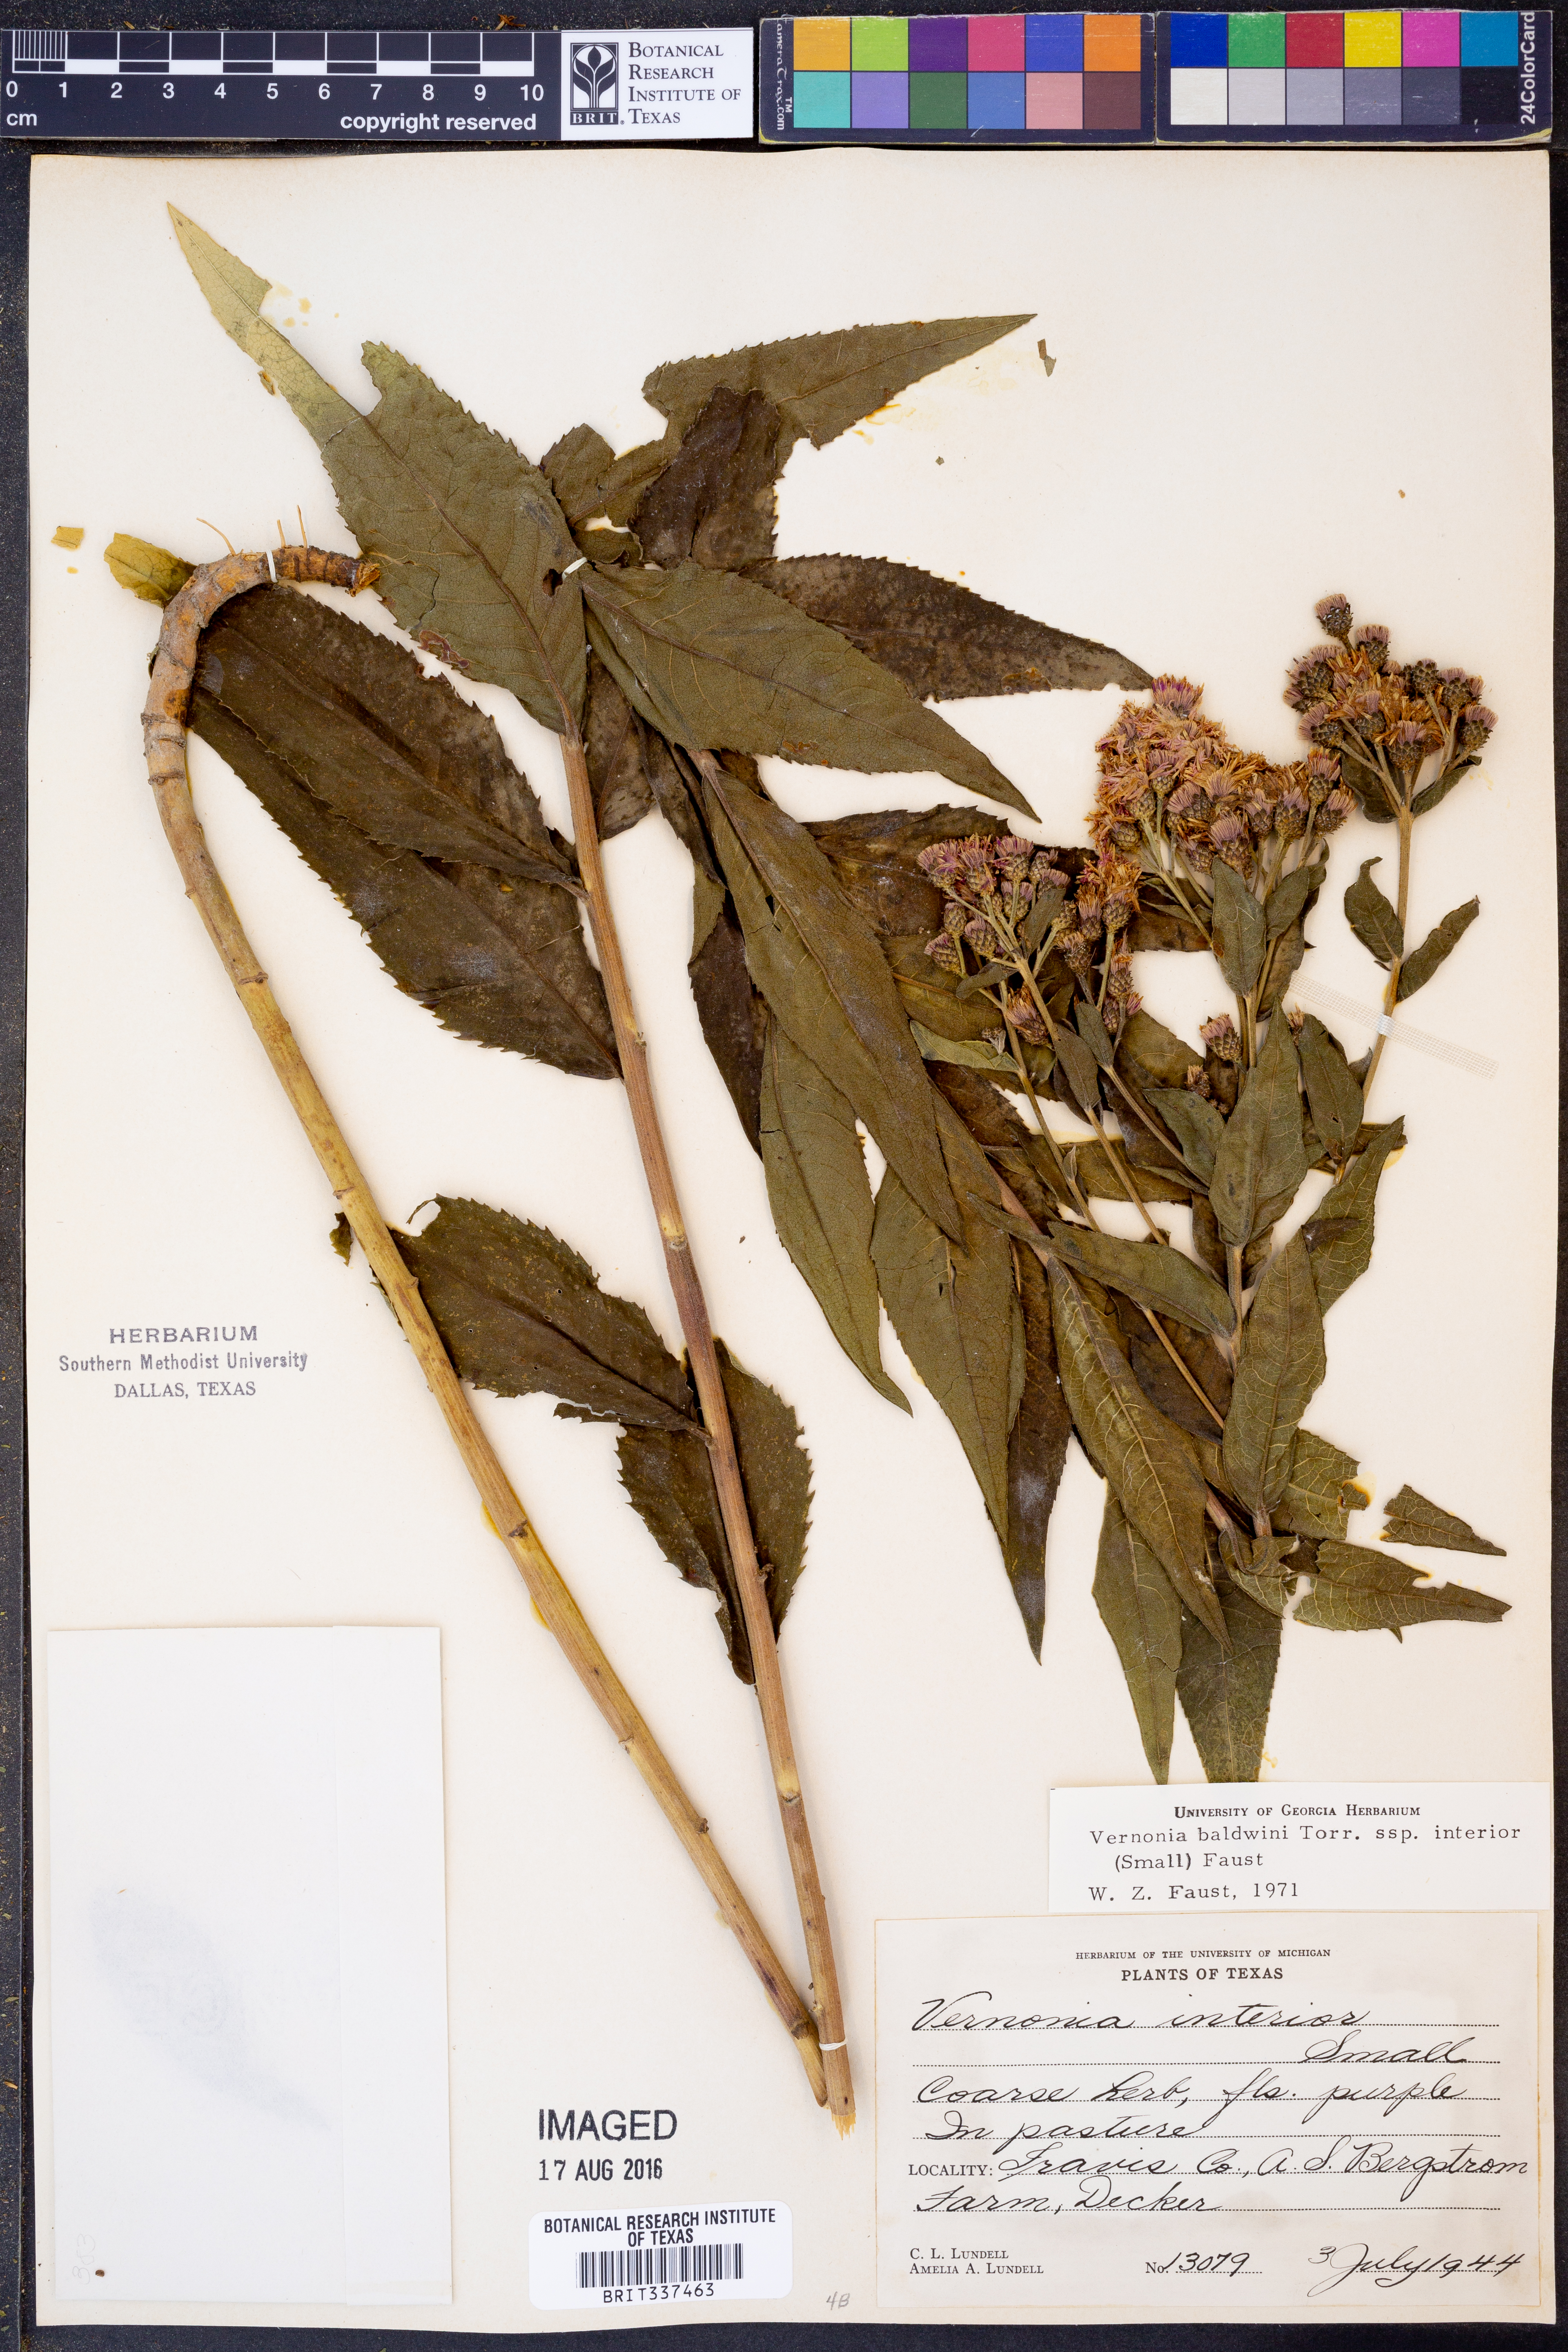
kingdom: Plantae
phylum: Tracheophyta
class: Magnoliopsida
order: Asterales
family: Asteraceae
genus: Vernonia
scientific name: Vernonia baldwinii
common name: Western ironweed
